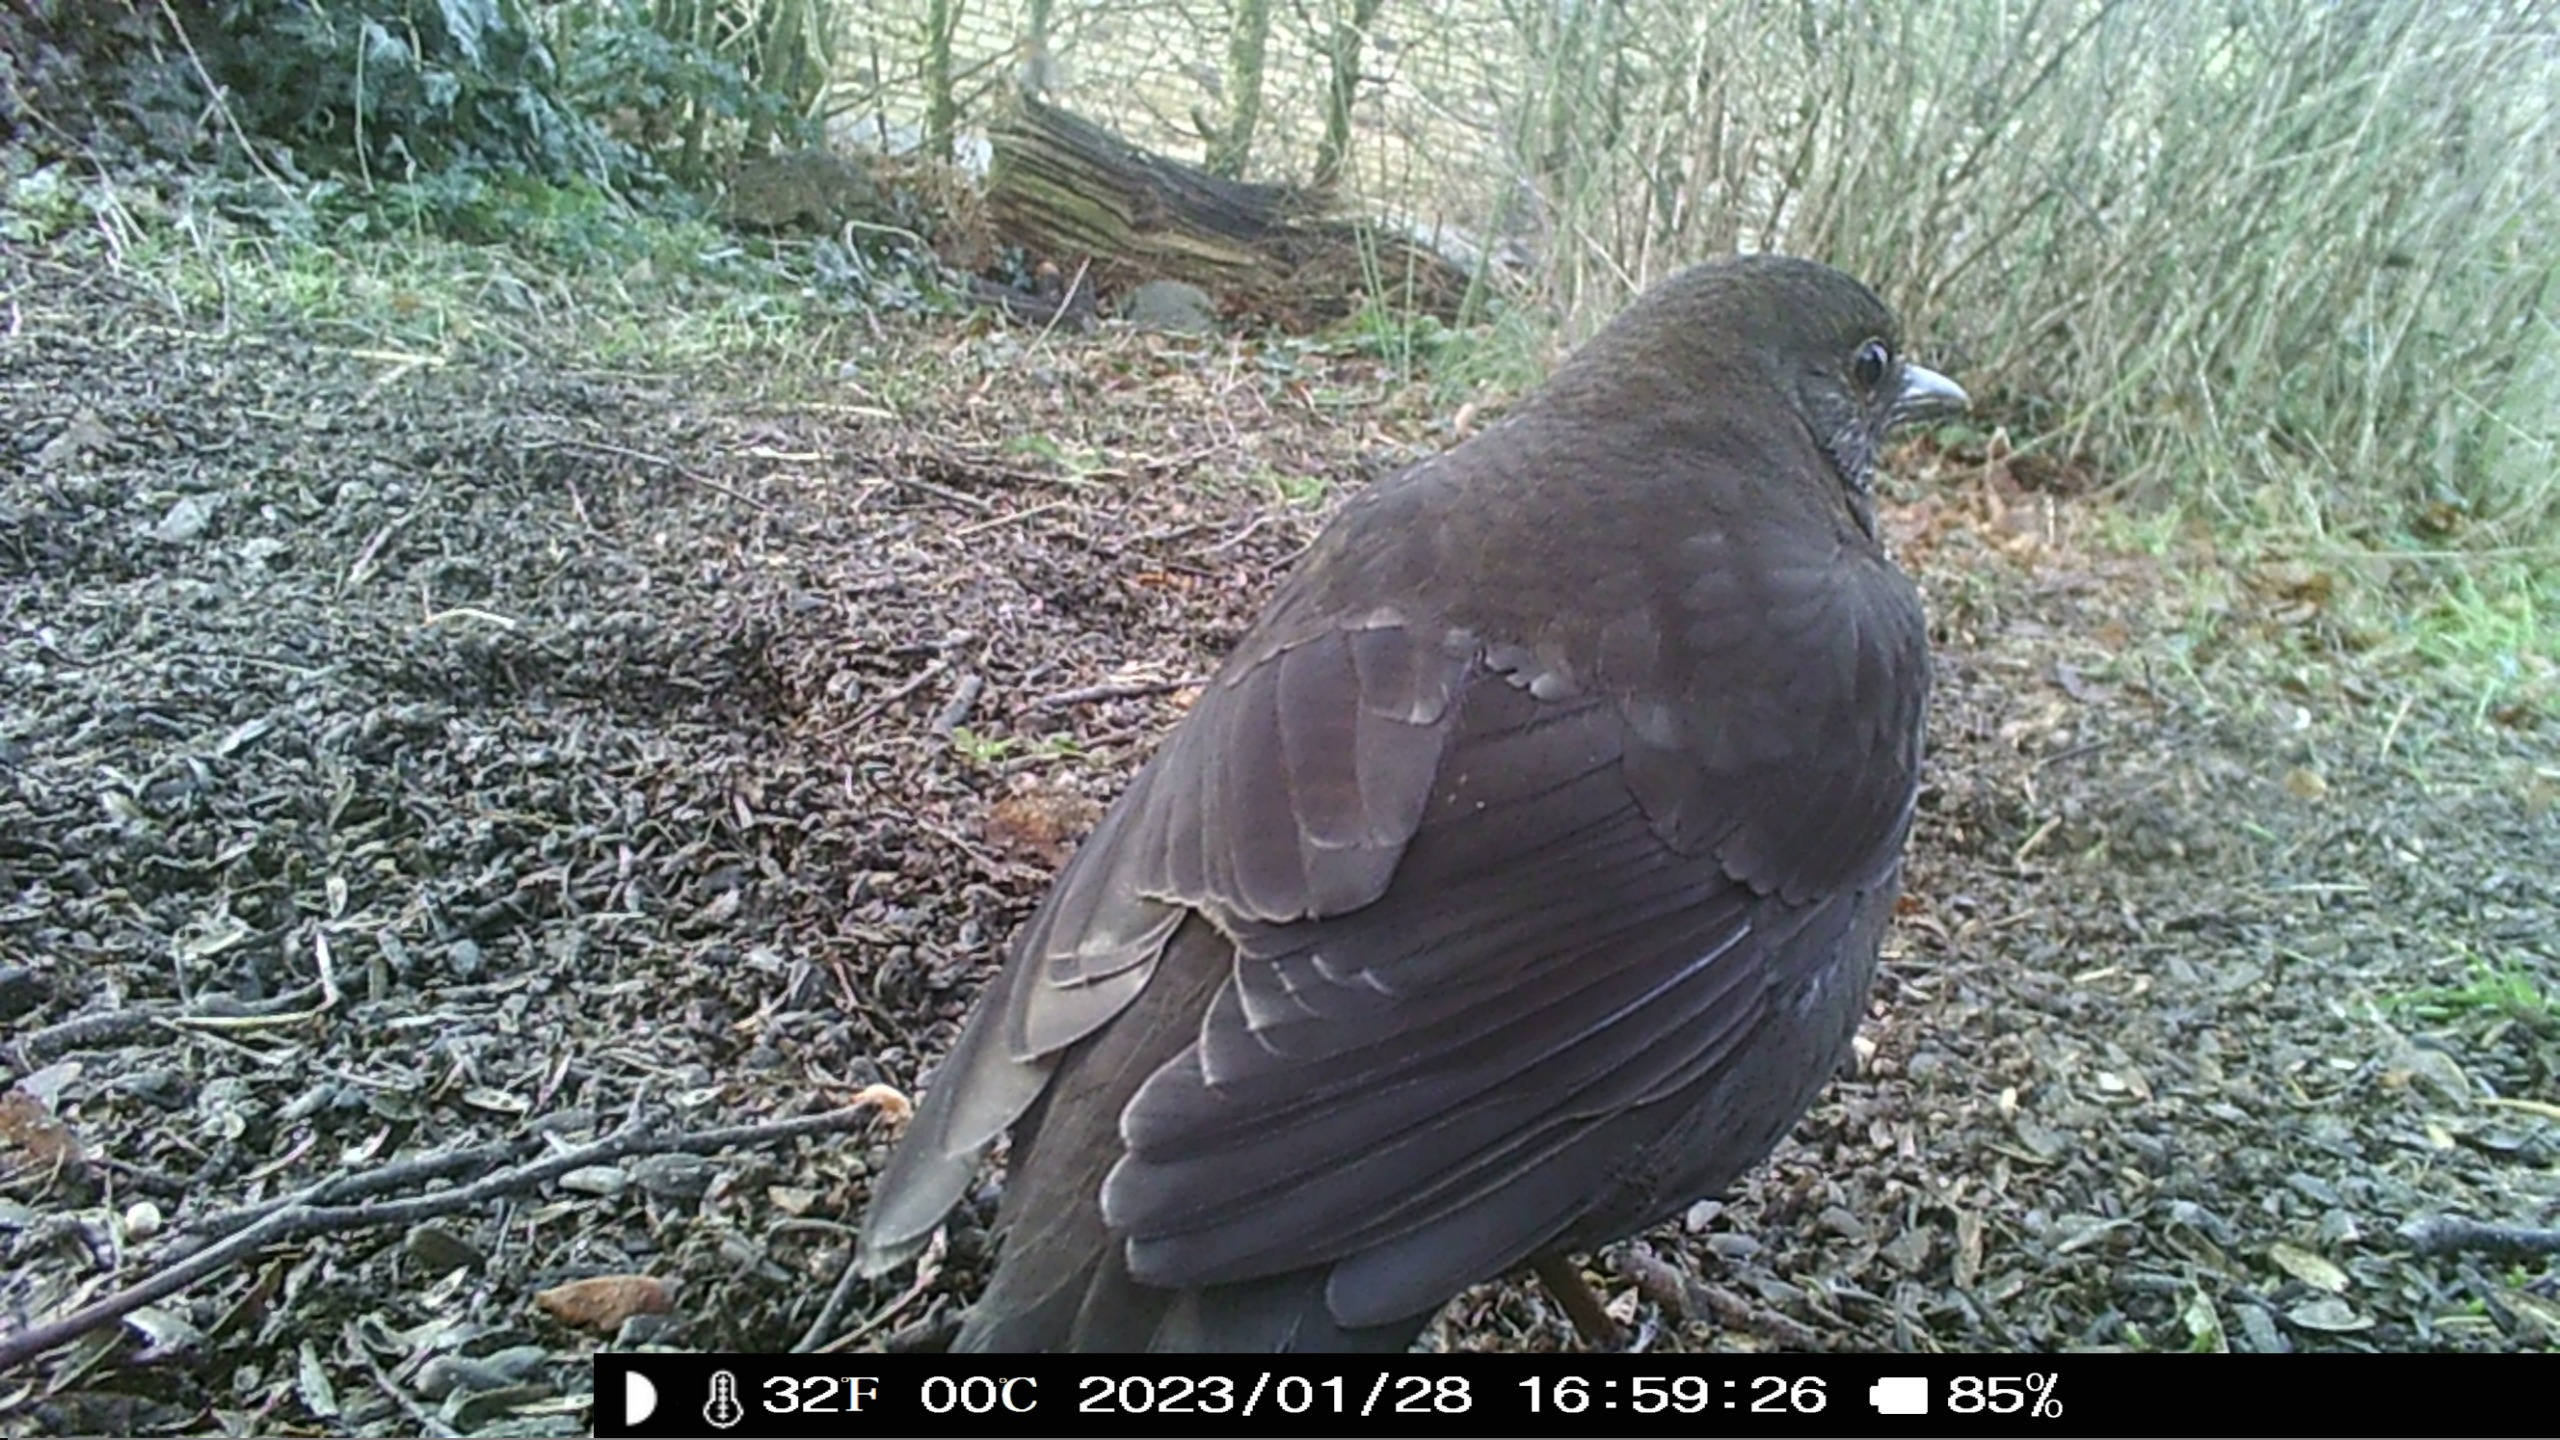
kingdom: Animalia
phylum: Chordata
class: Aves
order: Passeriformes
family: Turdidae
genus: Turdus
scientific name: Turdus merula
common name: Solsort
